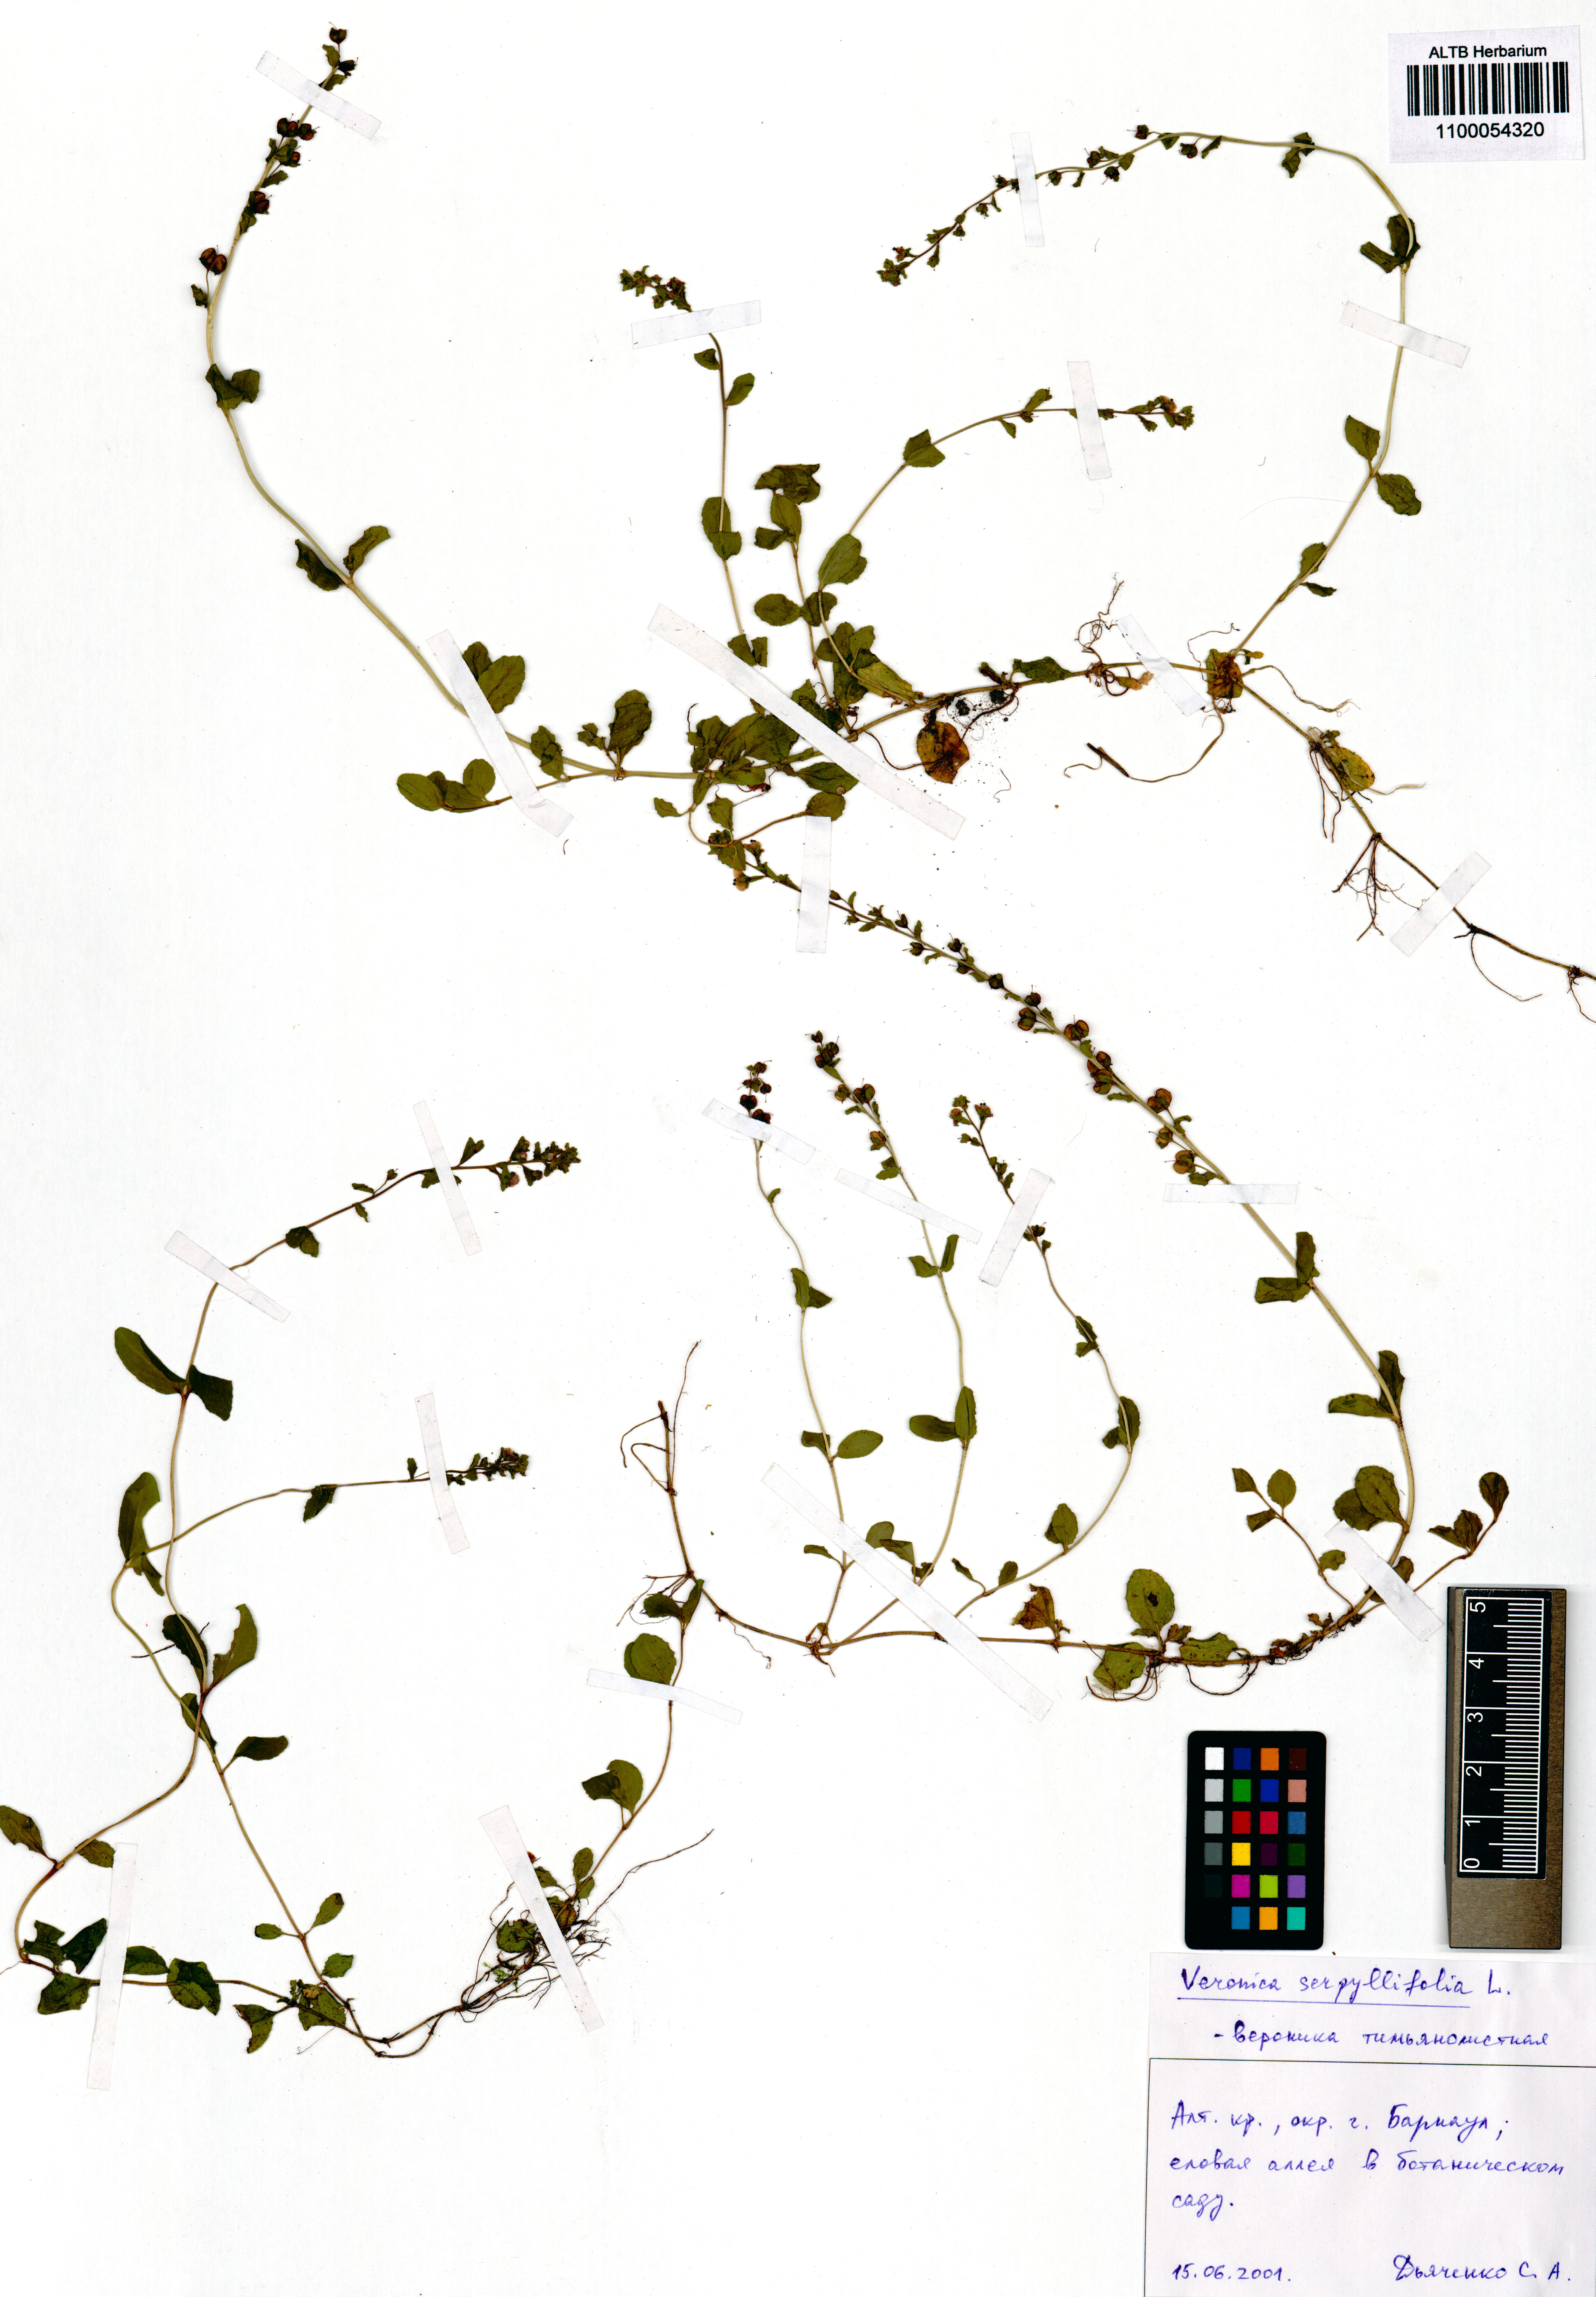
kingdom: Plantae
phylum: Tracheophyta
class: Magnoliopsida
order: Lamiales
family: Plantaginaceae
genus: Veronica
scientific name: Veronica serpyllifolia
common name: Thyme-leaved speedwell
